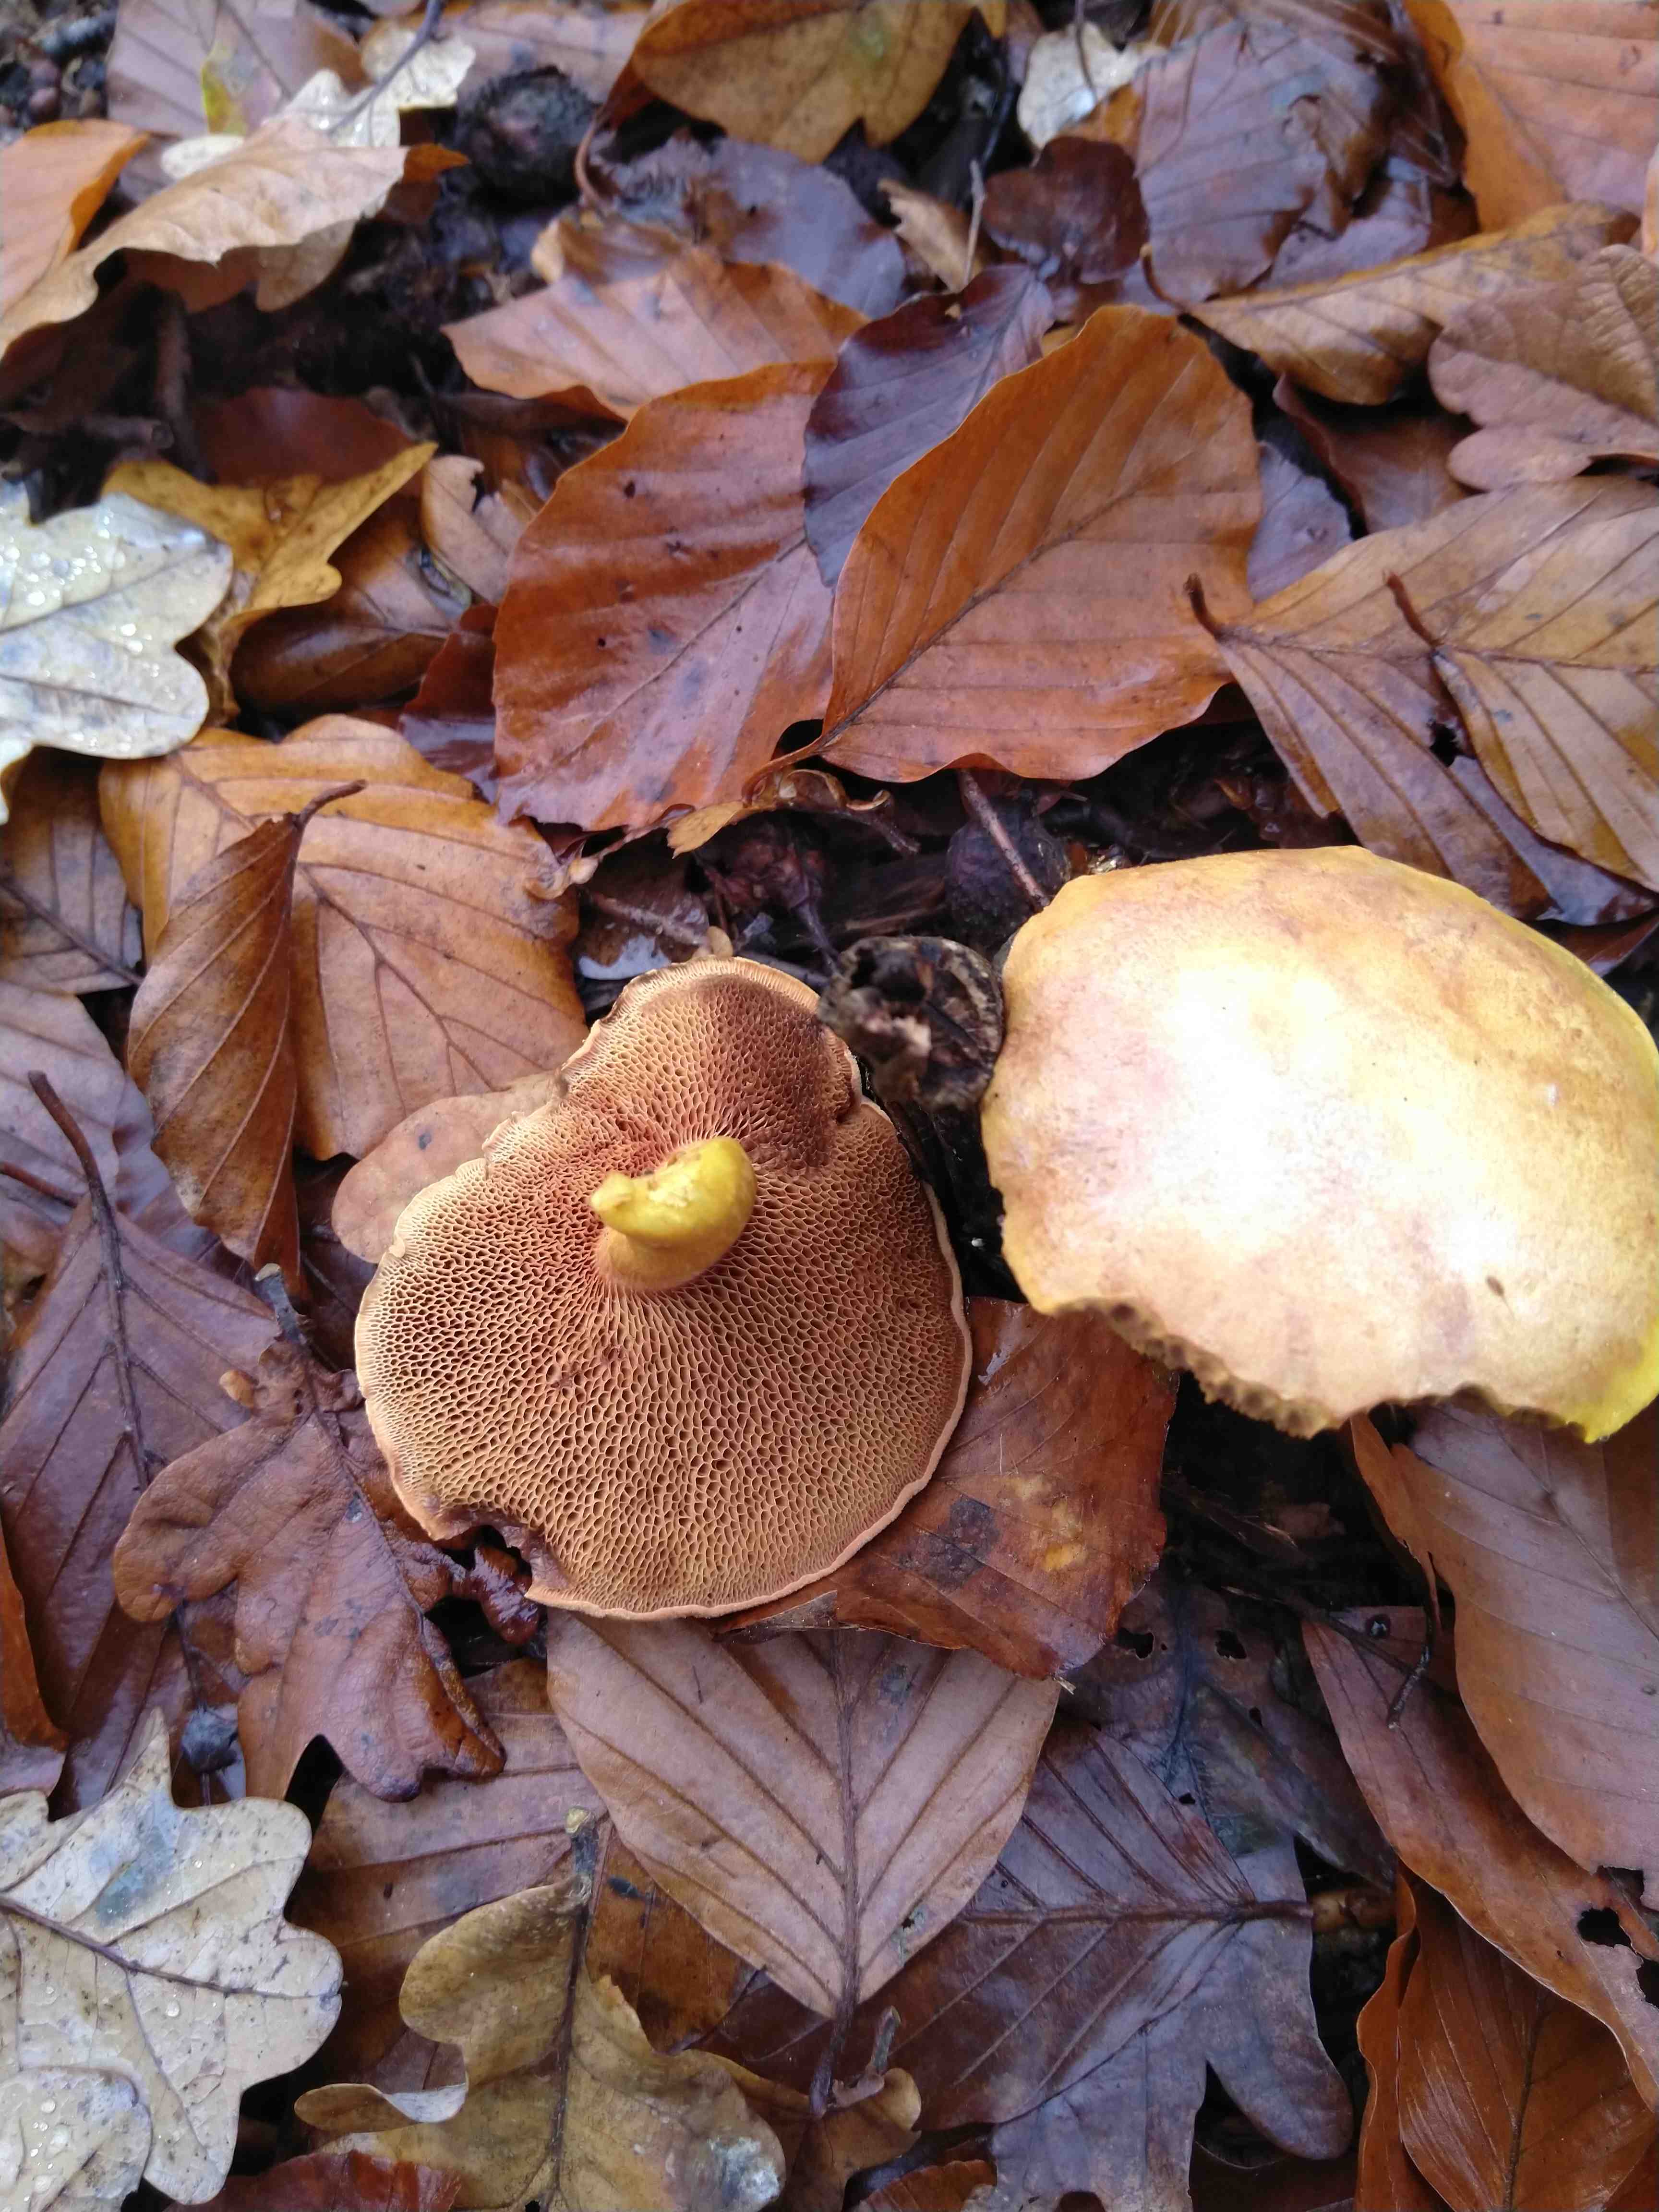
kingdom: Fungi
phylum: Basidiomycota
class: Agaricomycetes
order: Boletales
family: Boletaceae
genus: Chalciporus
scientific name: Chalciporus piperatus
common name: peberrørhat
